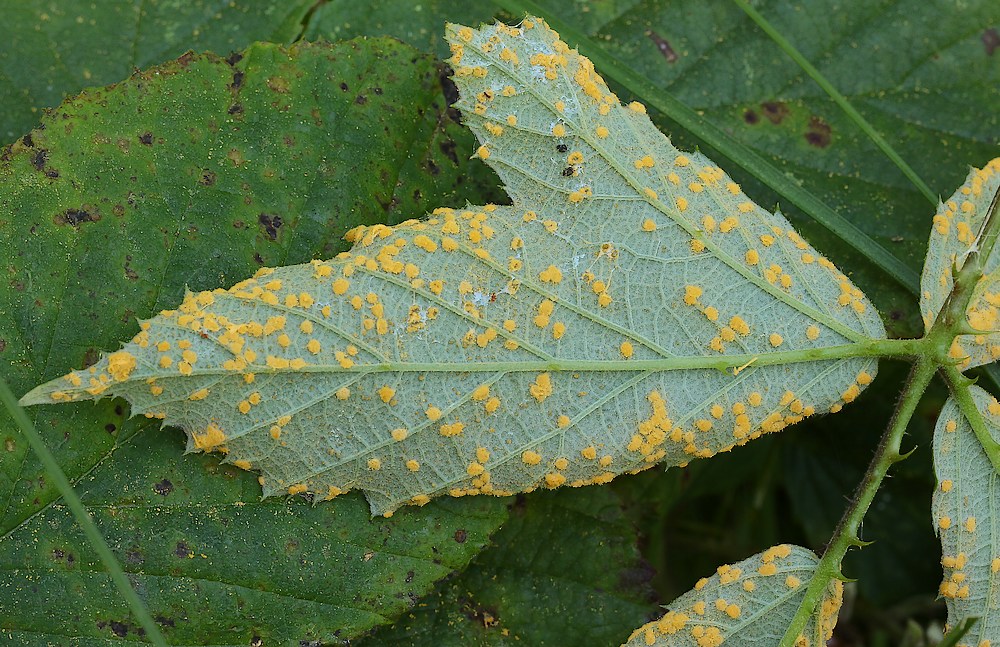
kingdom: Fungi
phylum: Basidiomycota
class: Pucciniomycetes
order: Pucciniales
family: Phragmidiaceae
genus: Phragmidium
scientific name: Phragmidium bulbosum
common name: brombær-flercellerust
